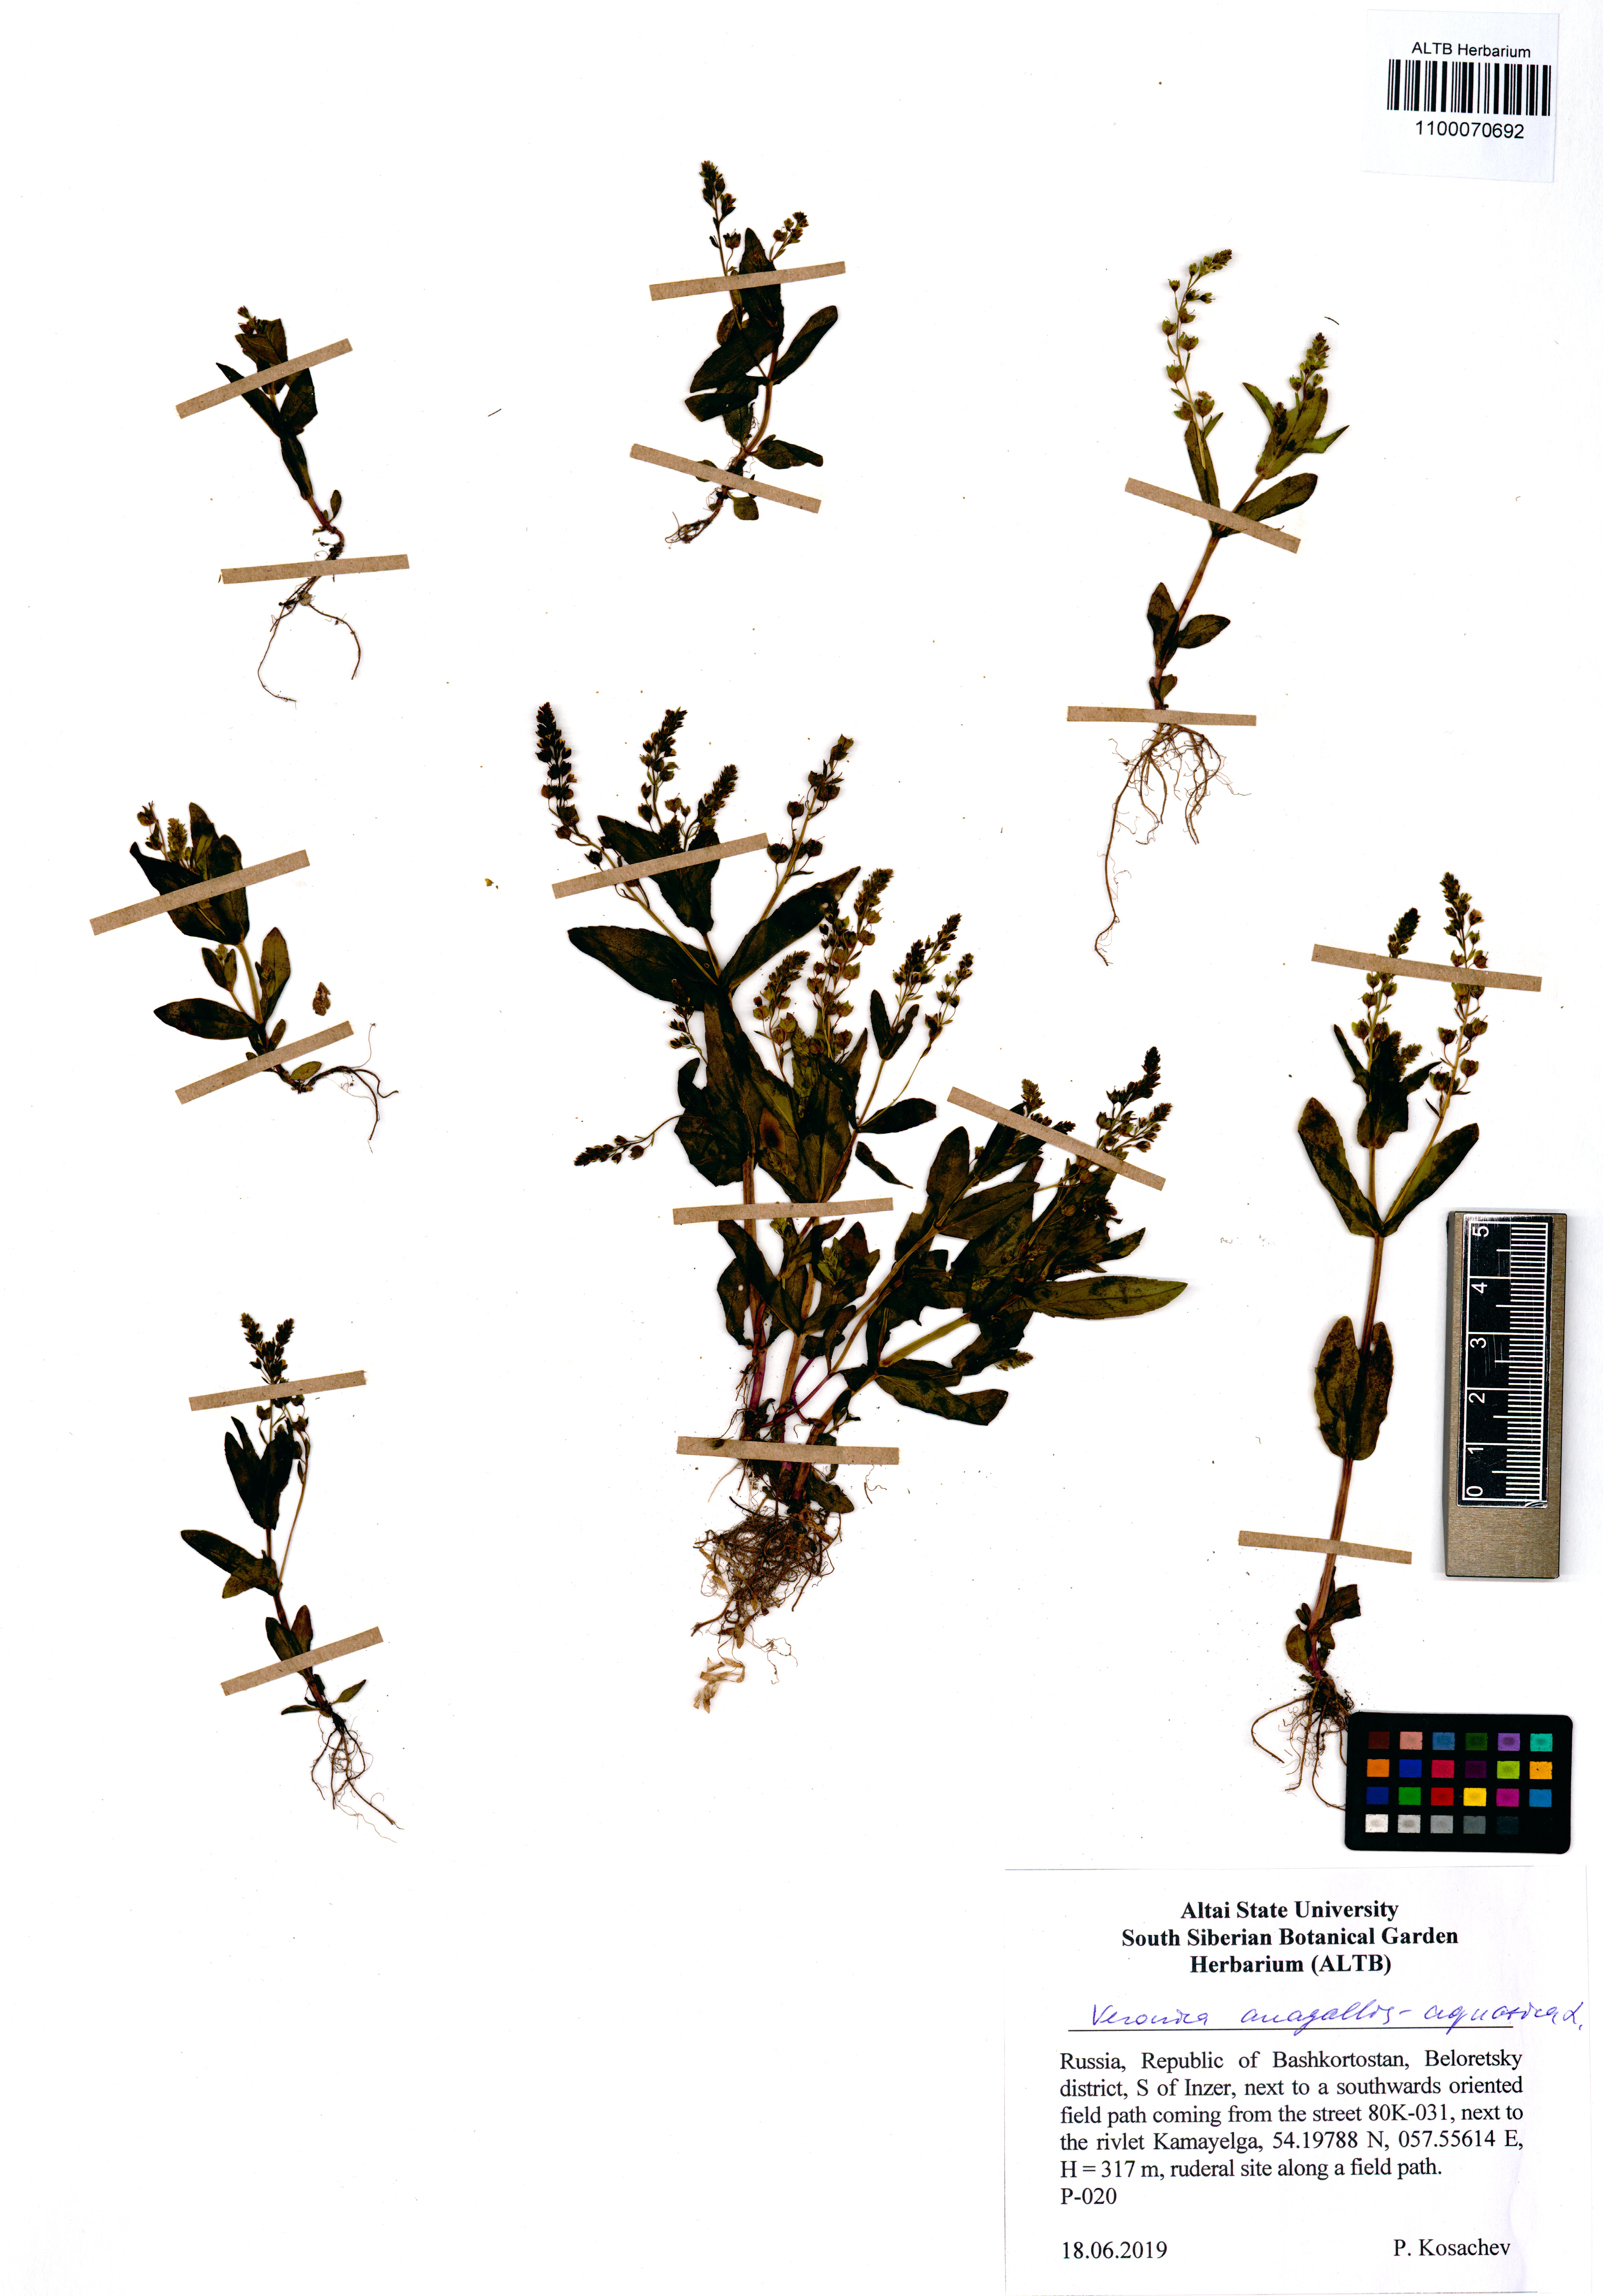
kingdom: Plantae
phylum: Tracheophyta
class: Magnoliopsida
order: Lamiales
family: Plantaginaceae
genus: Veronica
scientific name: Veronica anagallis-aquatica
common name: Water speedwell
